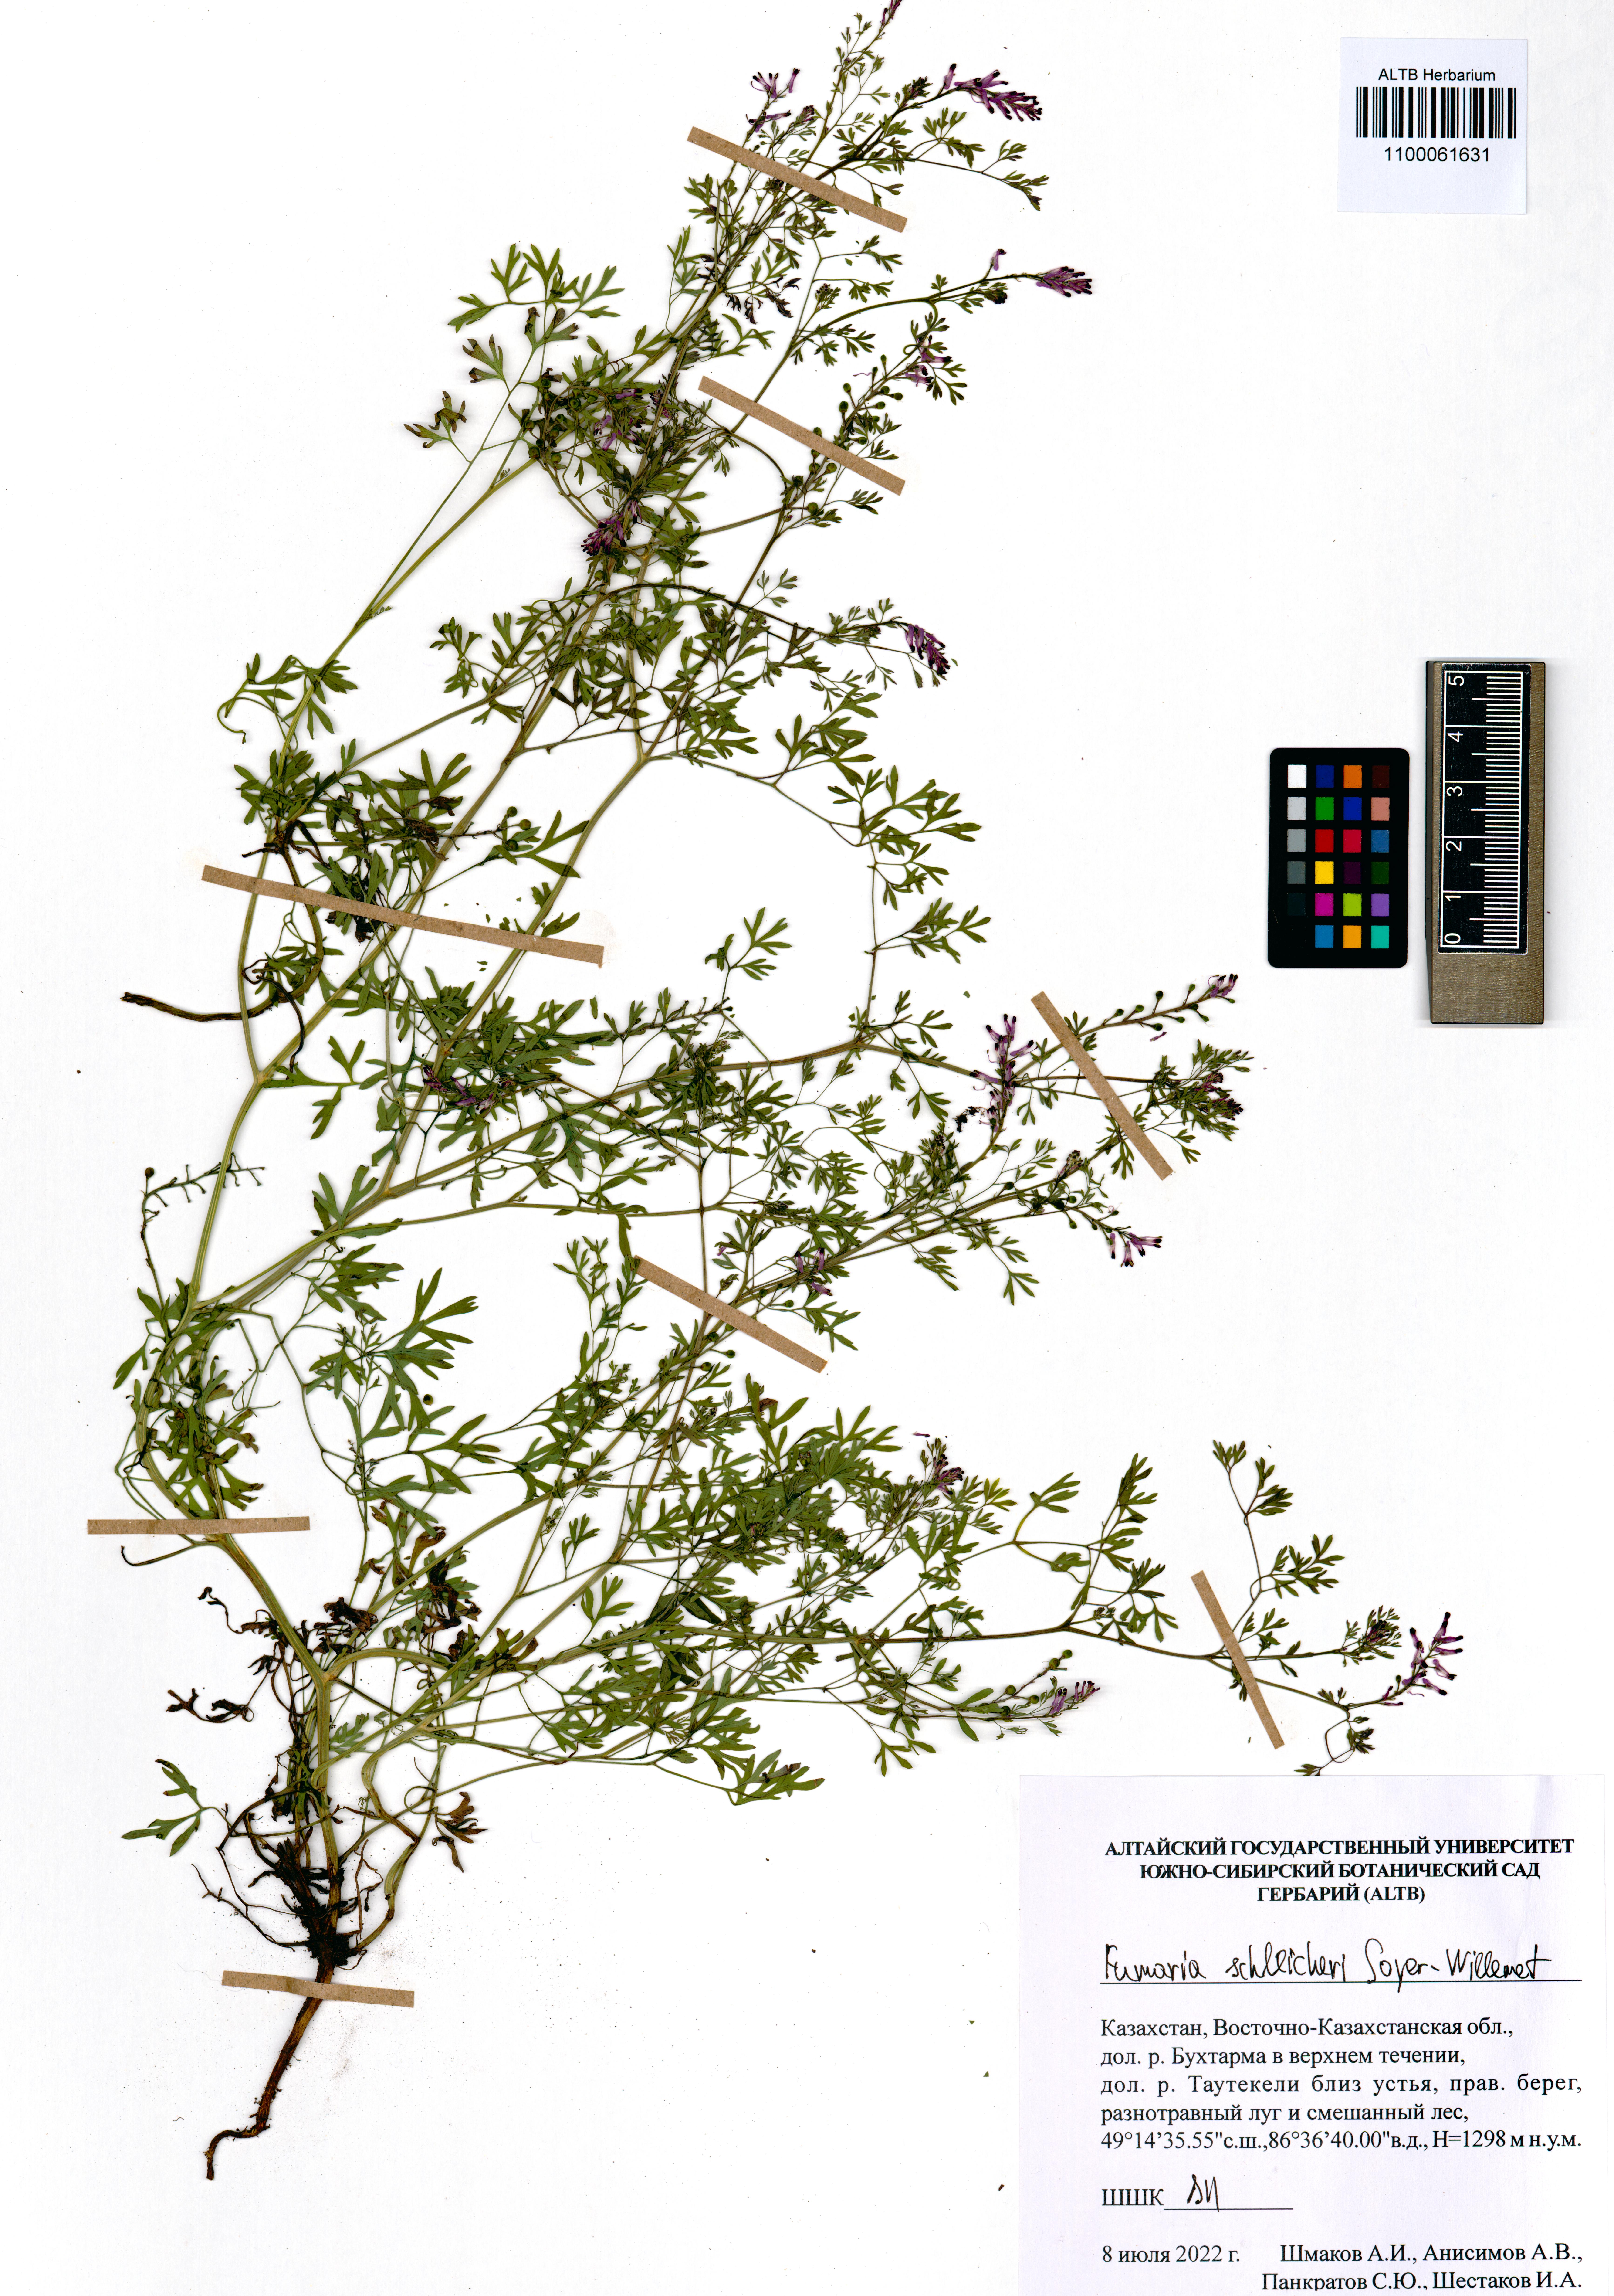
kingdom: Plantae
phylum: Tracheophyta
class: Magnoliopsida
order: Ranunculales
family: Papaveraceae
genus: Fumaria
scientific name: Fumaria schleicheri
